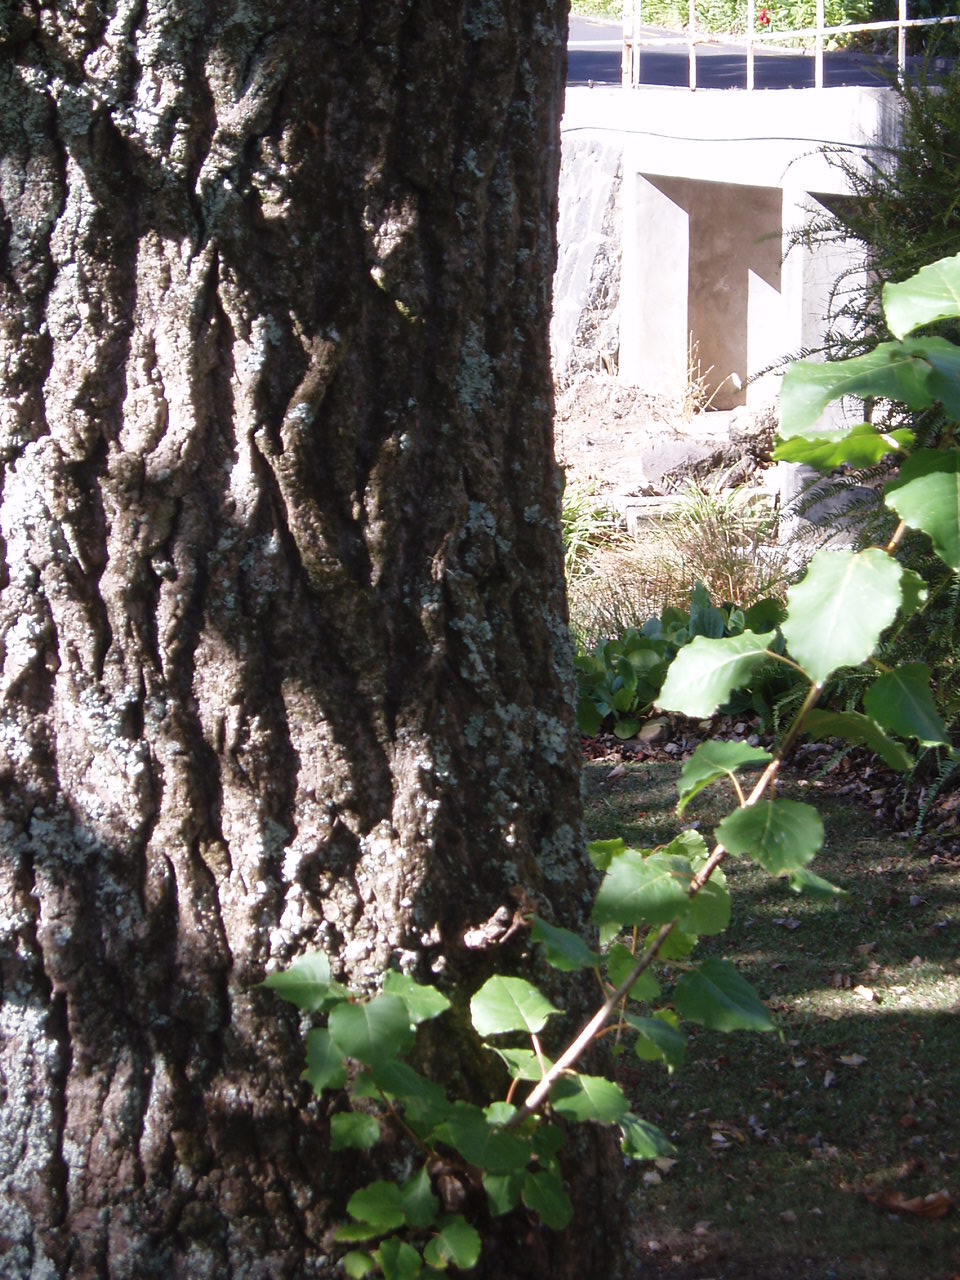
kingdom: Plantae
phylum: Tracheophyta
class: Magnoliopsida
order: Malpighiales
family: Salicaceae
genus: Populus
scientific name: Populus deltoides
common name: Eastern cottonwood
